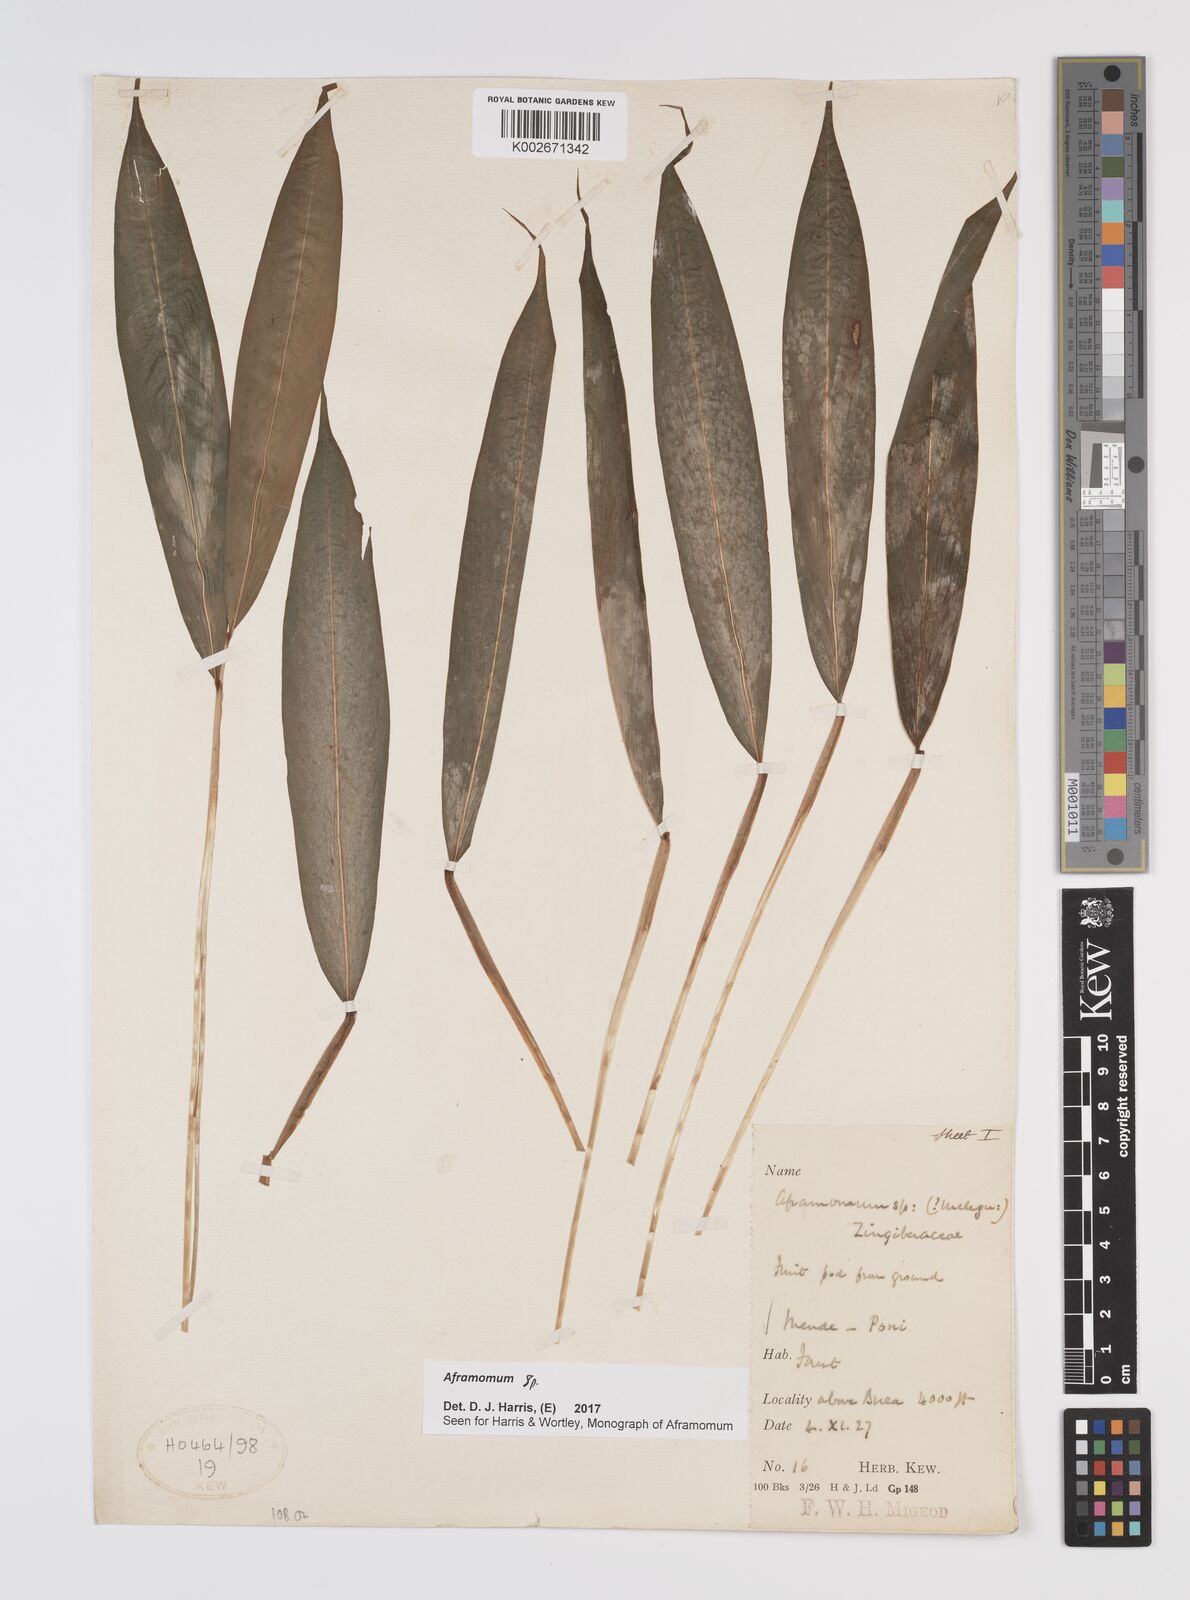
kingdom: Plantae
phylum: Tracheophyta
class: Liliopsida
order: Zingiberales
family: Zingiberaceae
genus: Aframomum
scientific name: Aframomum
